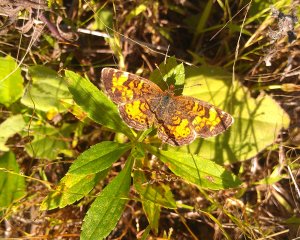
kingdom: Animalia
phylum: Arthropoda
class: Insecta
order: Lepidoptera
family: Nymphalidae
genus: Phyciodes
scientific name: Phyciodes tharos
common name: Northern Crescent
